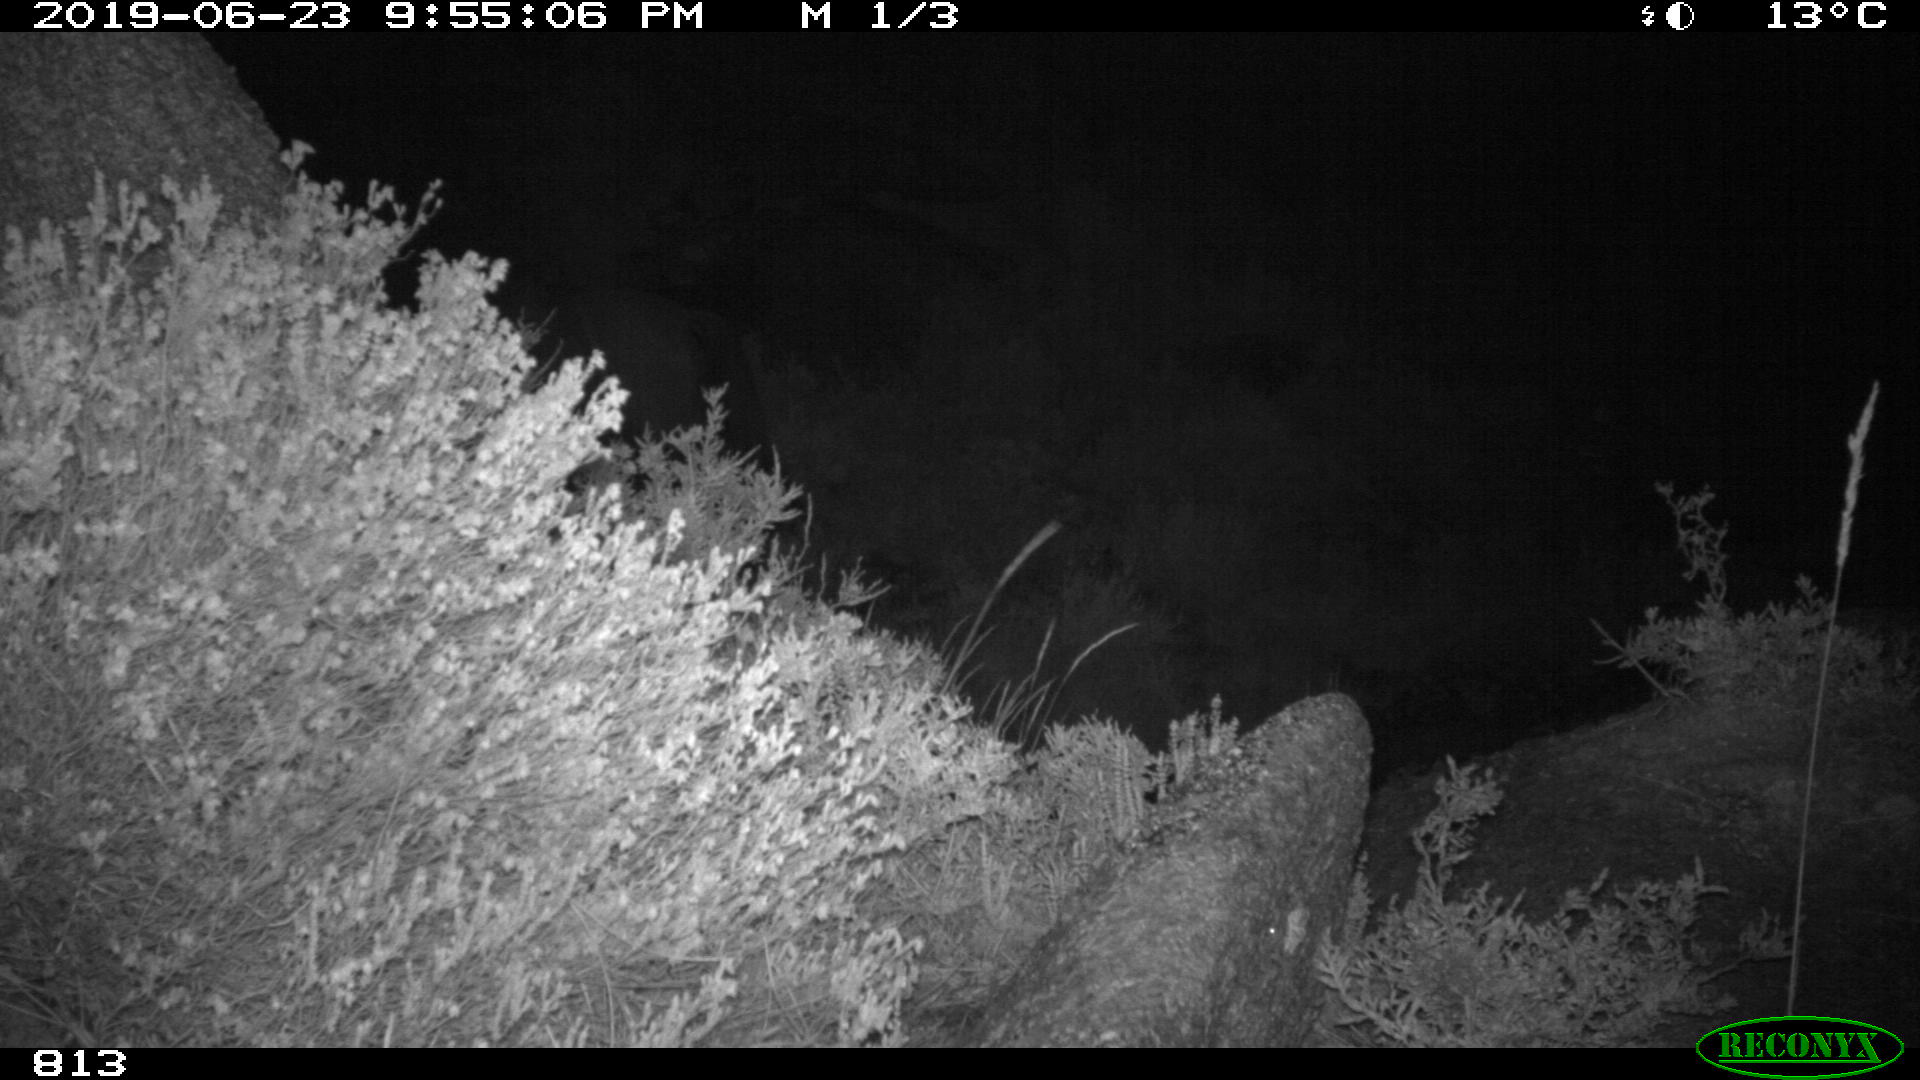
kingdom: Animalia
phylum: Chordata
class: Mammalia
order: Perissodactyla
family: Equidae
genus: Equus
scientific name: Equus caballus
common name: Horse
